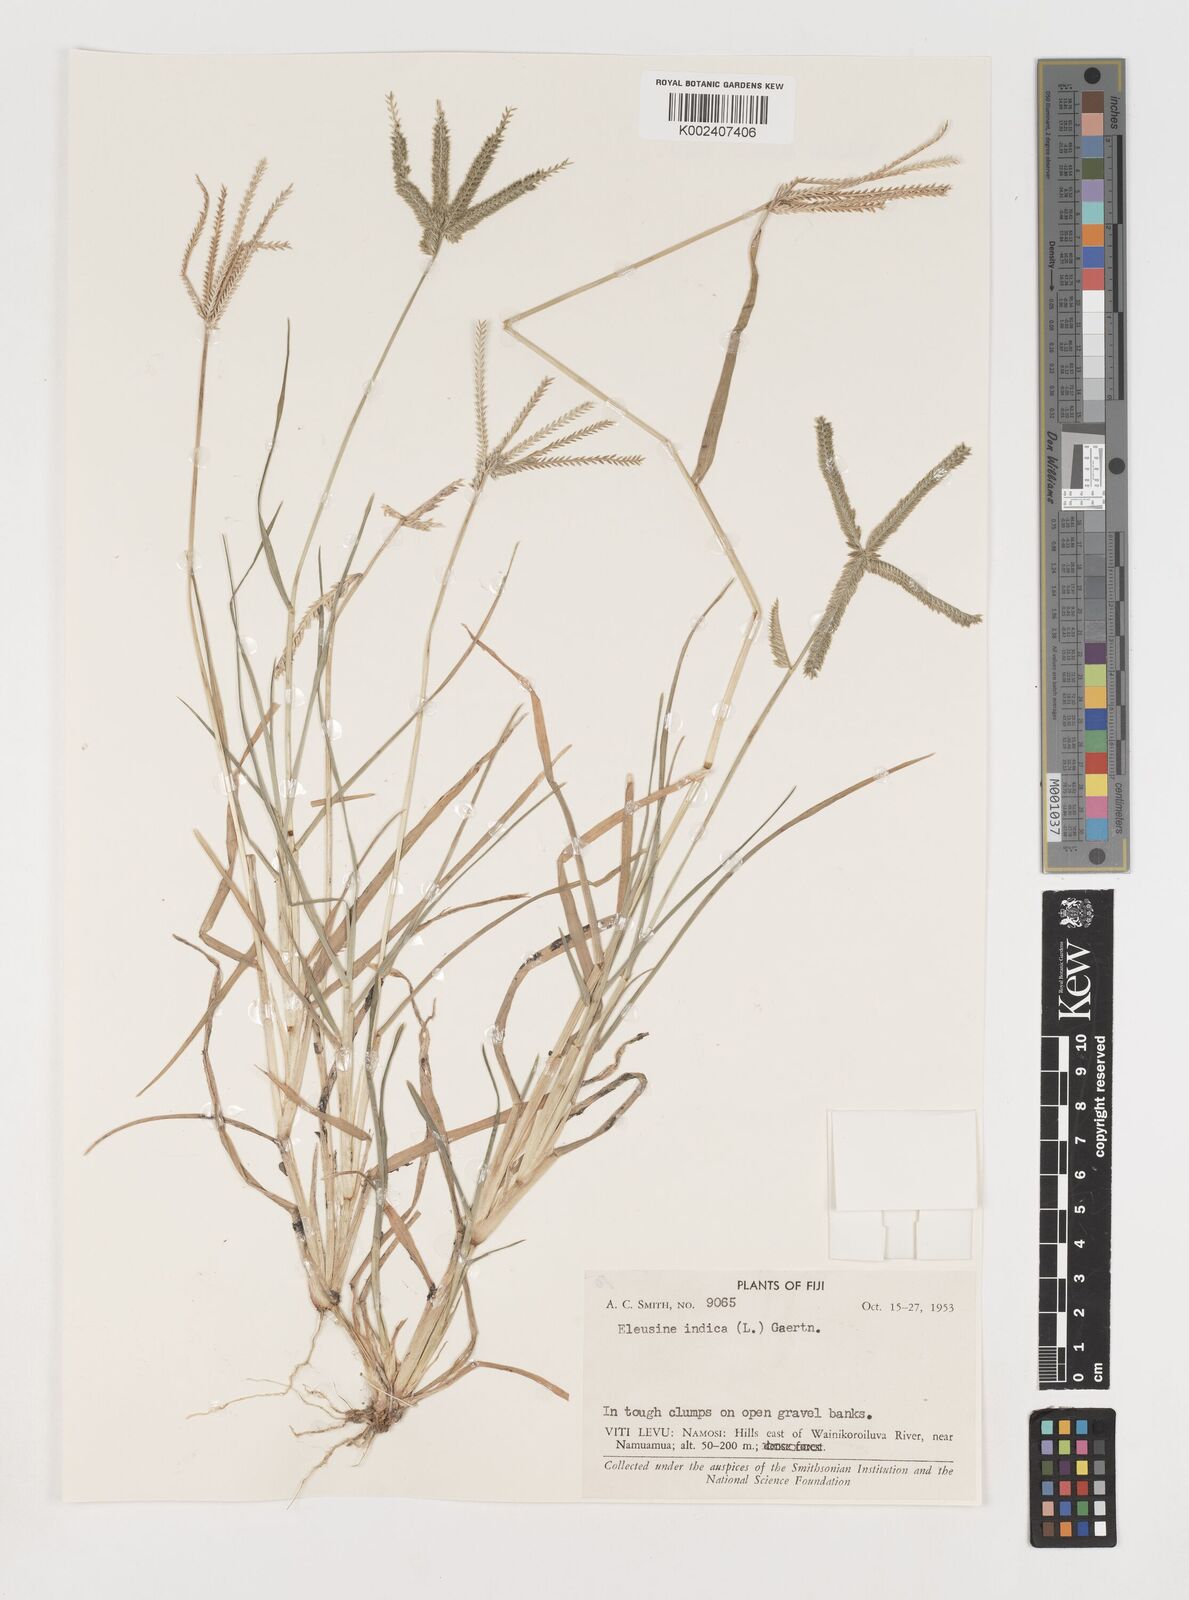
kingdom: Plantae
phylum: Tracheophyta
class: Liliopsida
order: Poales
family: Poaceae
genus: Eleusine
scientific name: Eleusine indica
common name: Yard-grass
